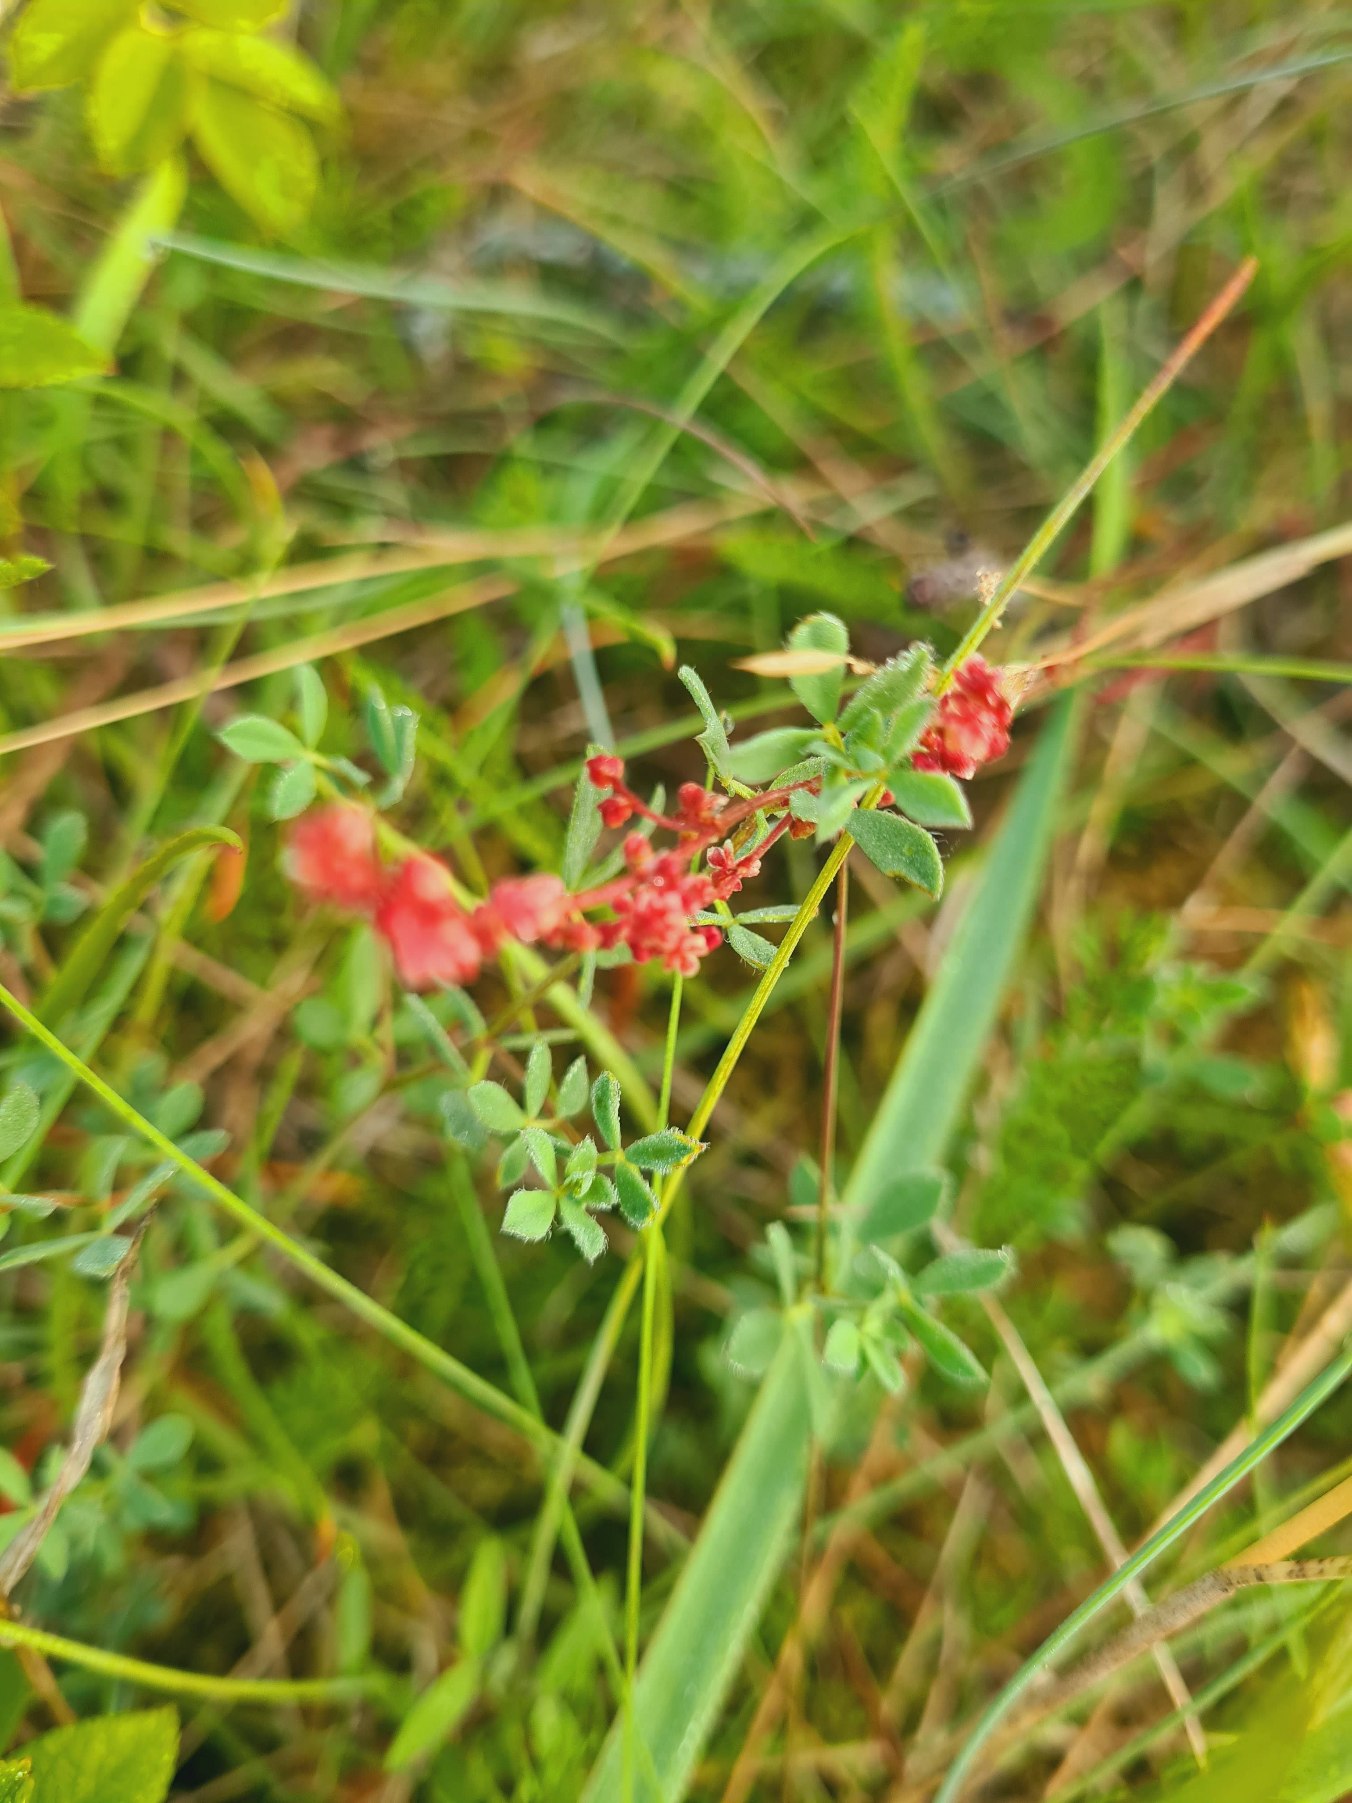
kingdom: Plantae
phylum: Tracheophyta
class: Magnoliopsida
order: Caryophyllales
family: Polygonaceae
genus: Rumex
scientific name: Rumex acetosella
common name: Rødknæ
